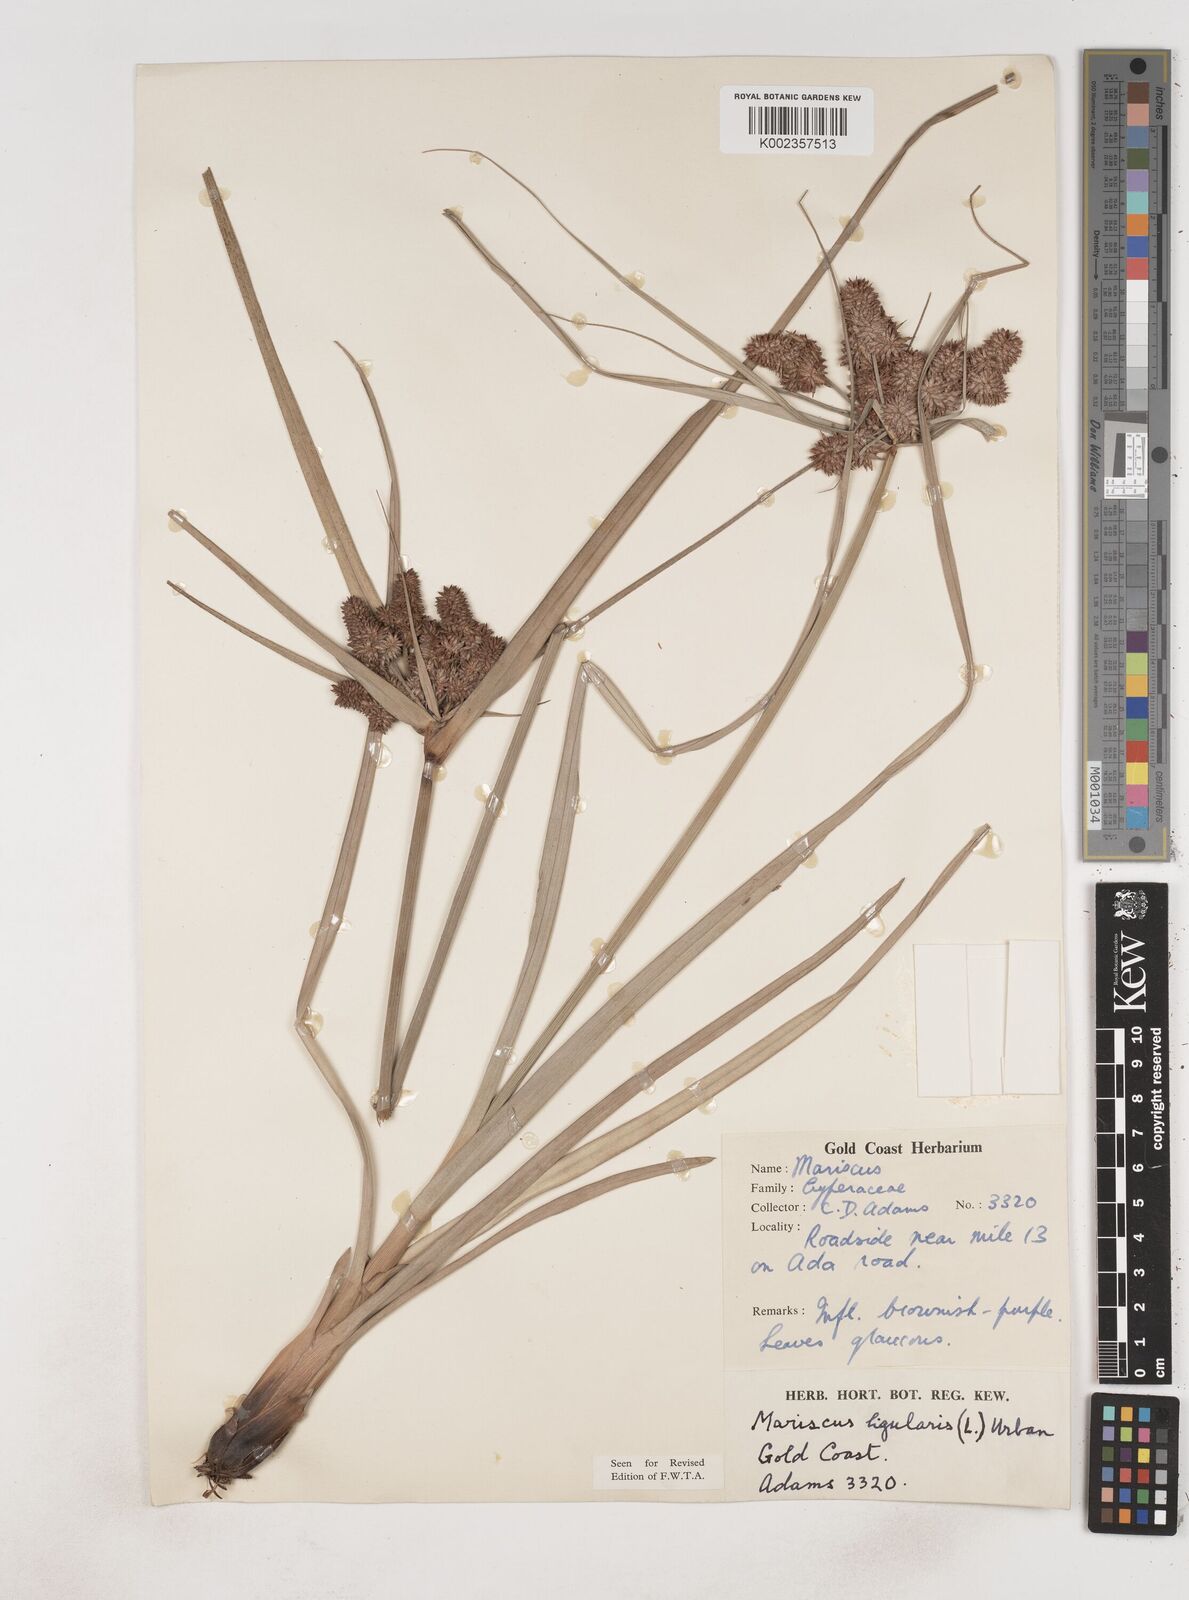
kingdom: Plantae
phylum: Tracheophyta
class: Liliopsida
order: Poales
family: Cyperaceae
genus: Cyperus
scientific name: Cyperus ligularis
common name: Swamp flat sedge
